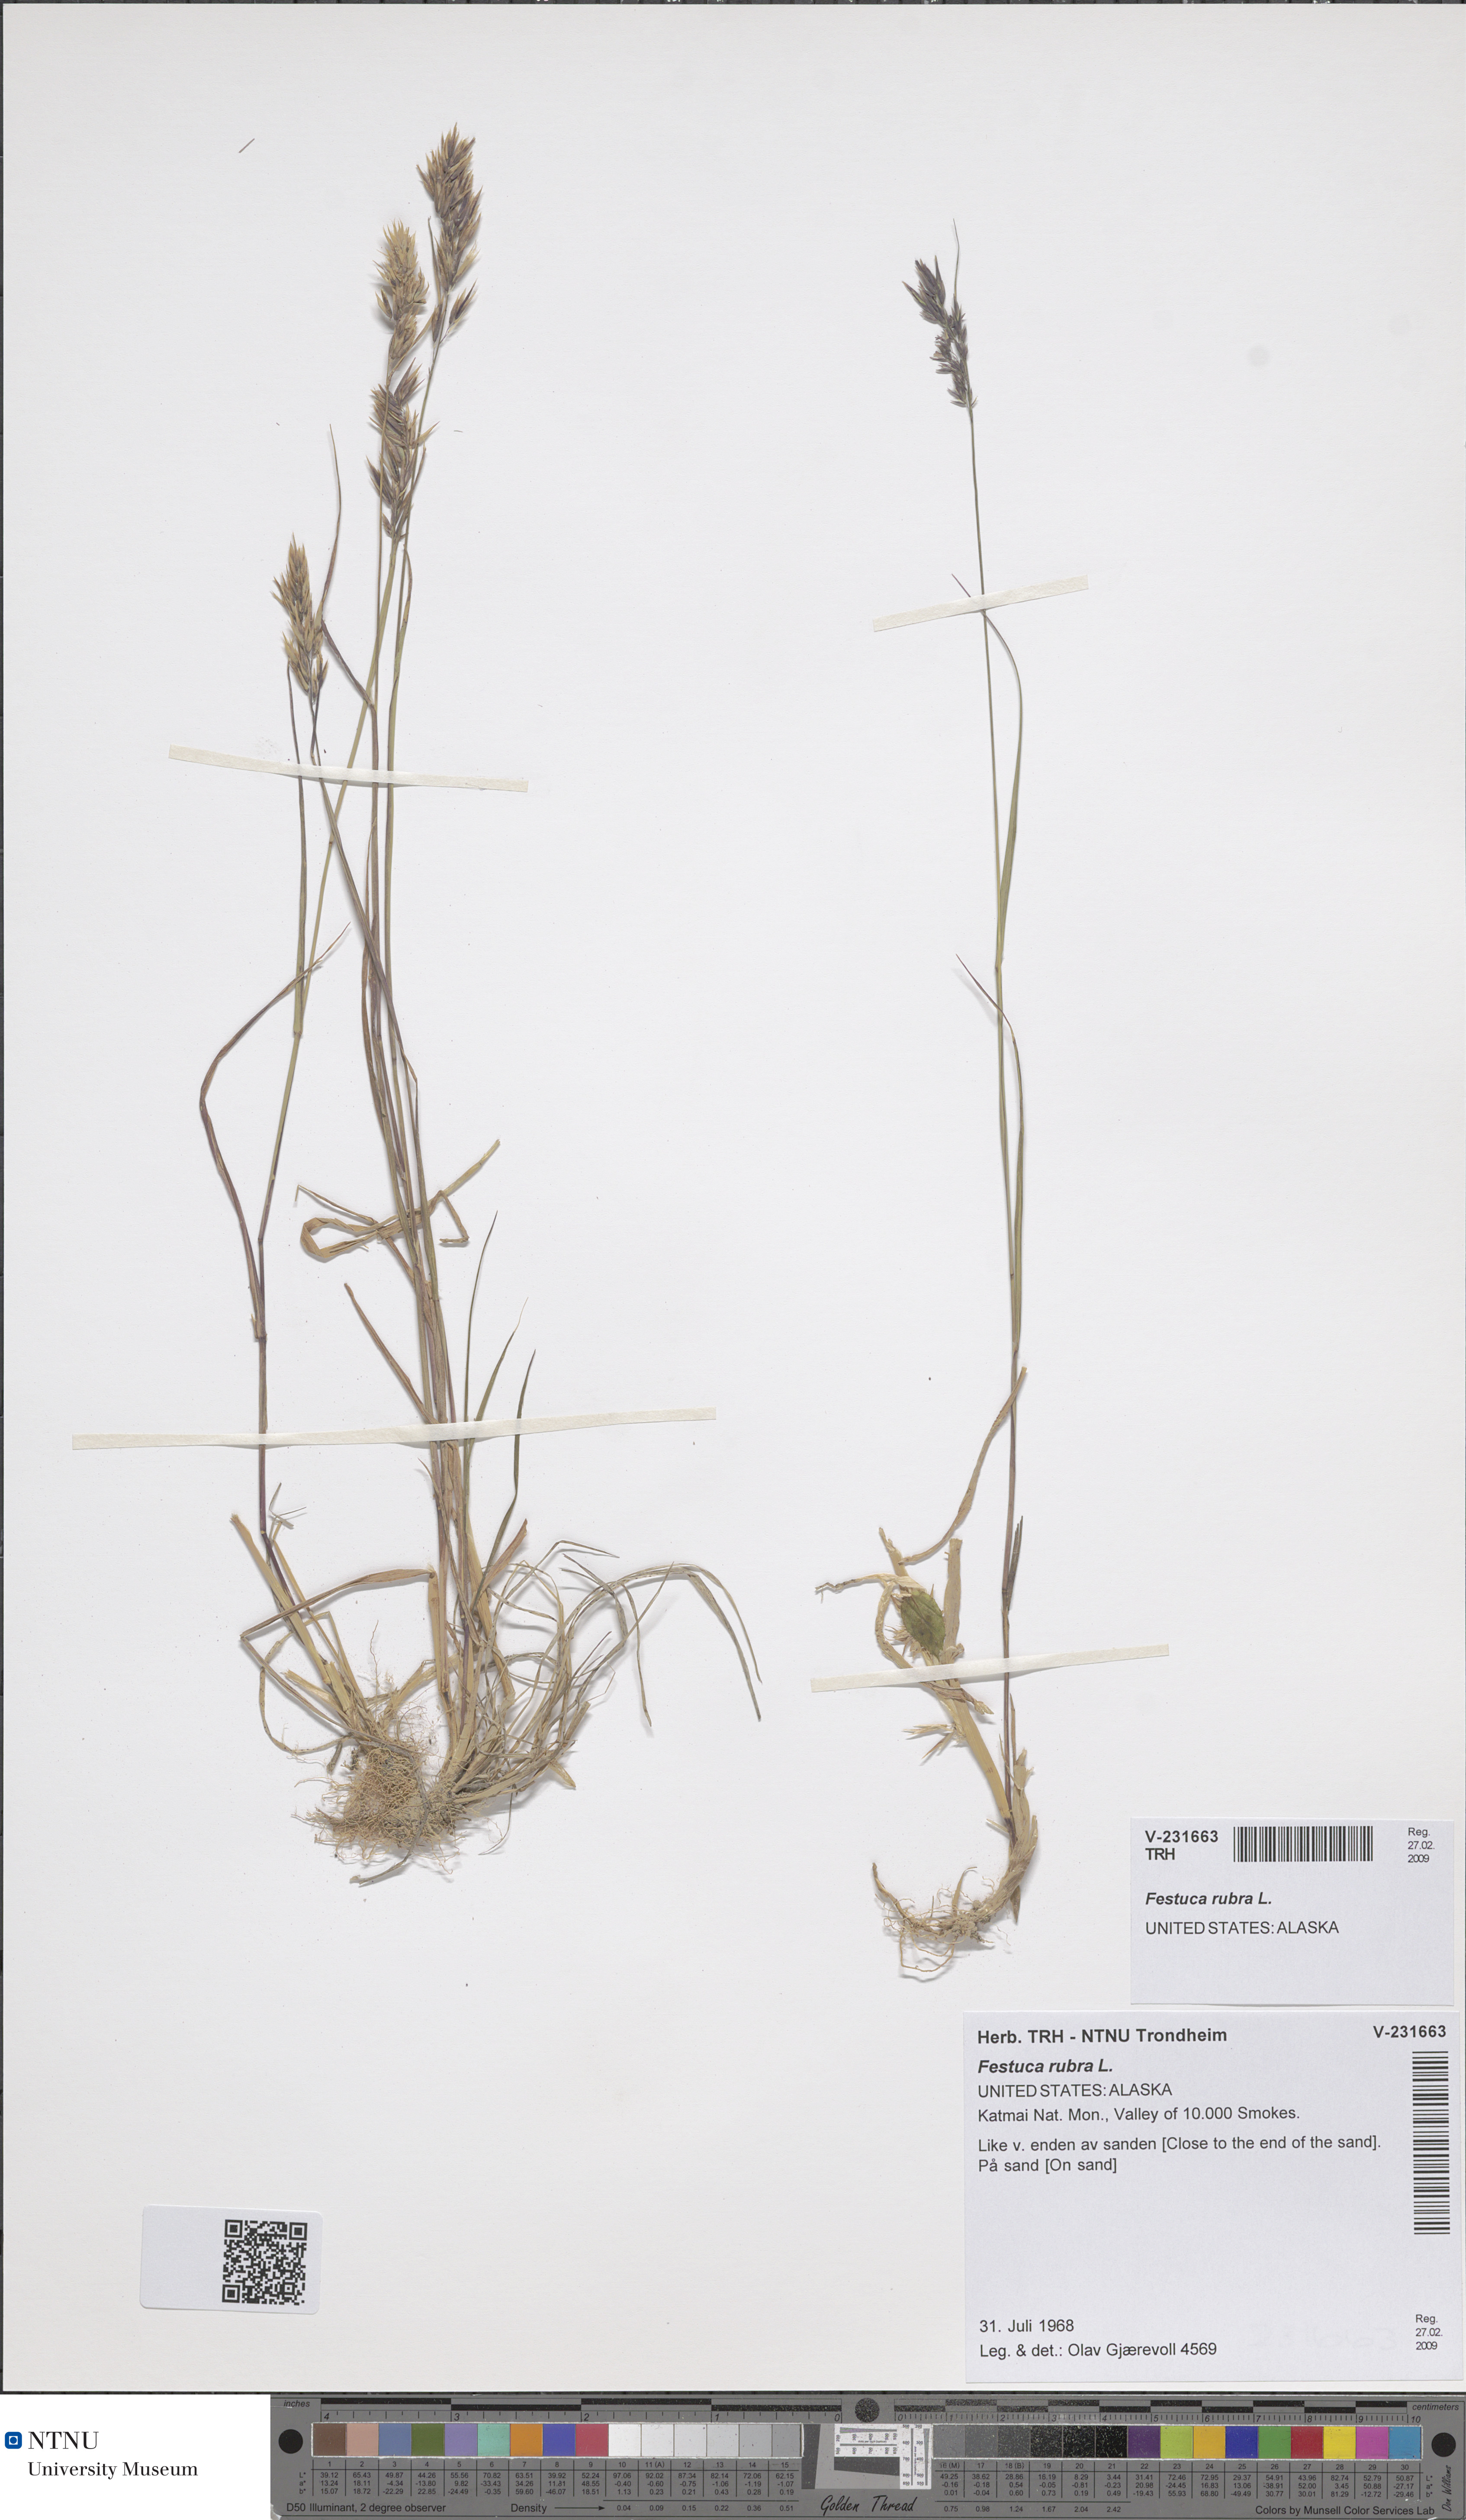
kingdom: Plantae
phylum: Tracheophyta
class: Liliopsida
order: Poales
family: Poaceae
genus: Festuca
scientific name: Festuca rubra
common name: Red fescue
